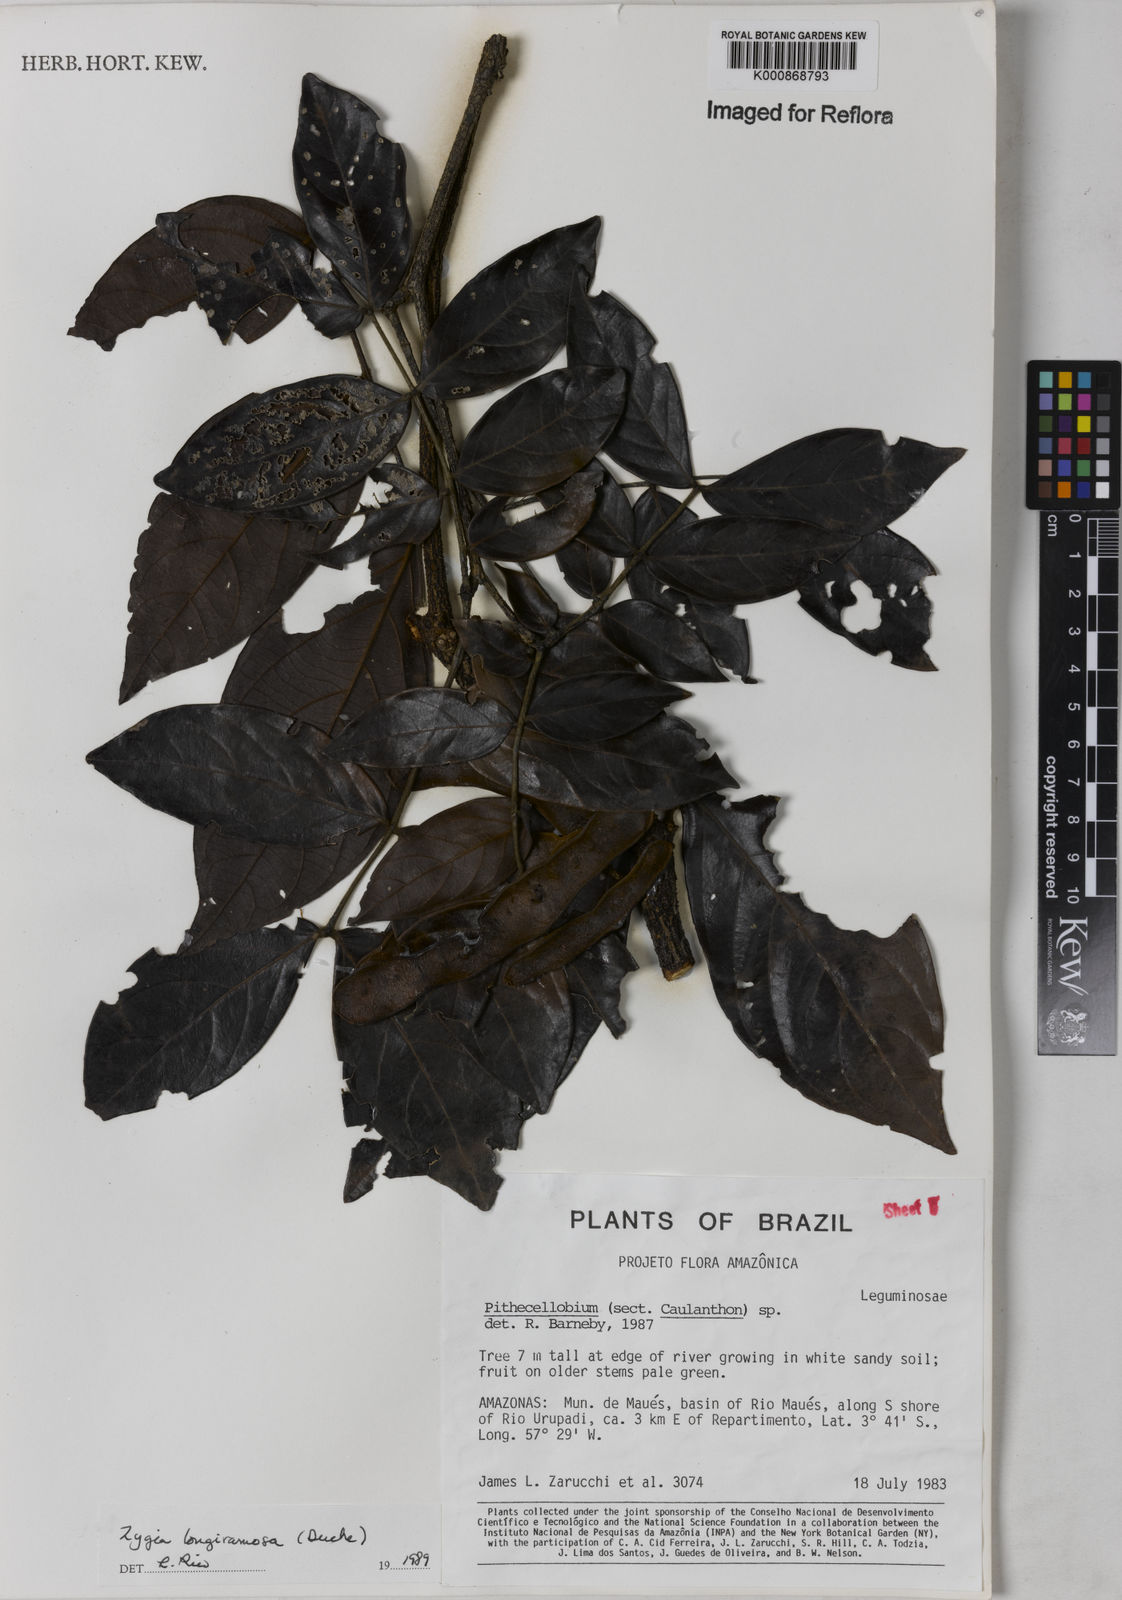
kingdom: Plantae
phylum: Tracheophyta
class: Magnoliopsida
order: Fabales
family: Fabaceae
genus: Zygia
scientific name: Zygia inaequalis
